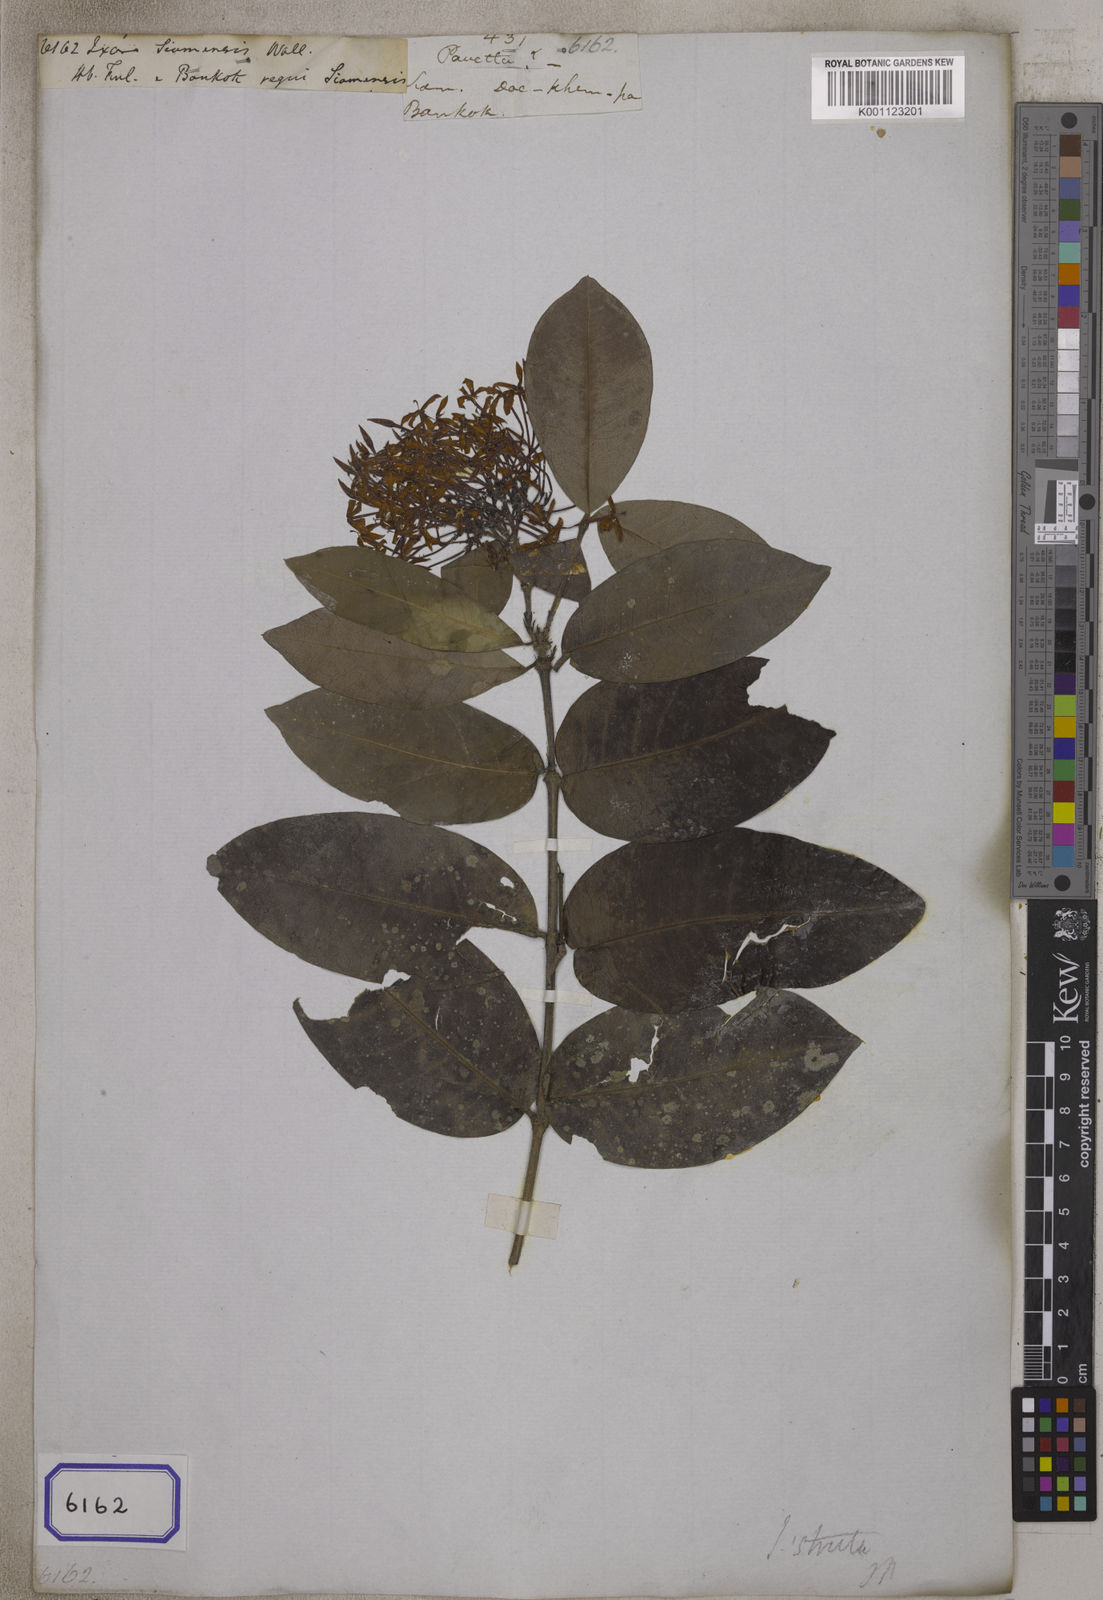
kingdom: Plantae
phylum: Tracheophyta
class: Magnoliopsida
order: Gentianales
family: Rubiaceae
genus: Ixora
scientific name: Ixora
